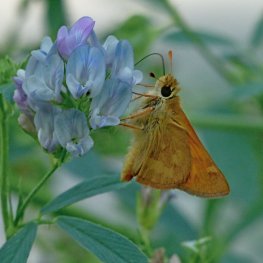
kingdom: Animalia
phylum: Arthropoda
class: Insecta
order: Lepidoptera
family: Hesperiidae
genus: Ochlodes
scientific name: Ochlodes sylvanoides
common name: Woodland Skipper
